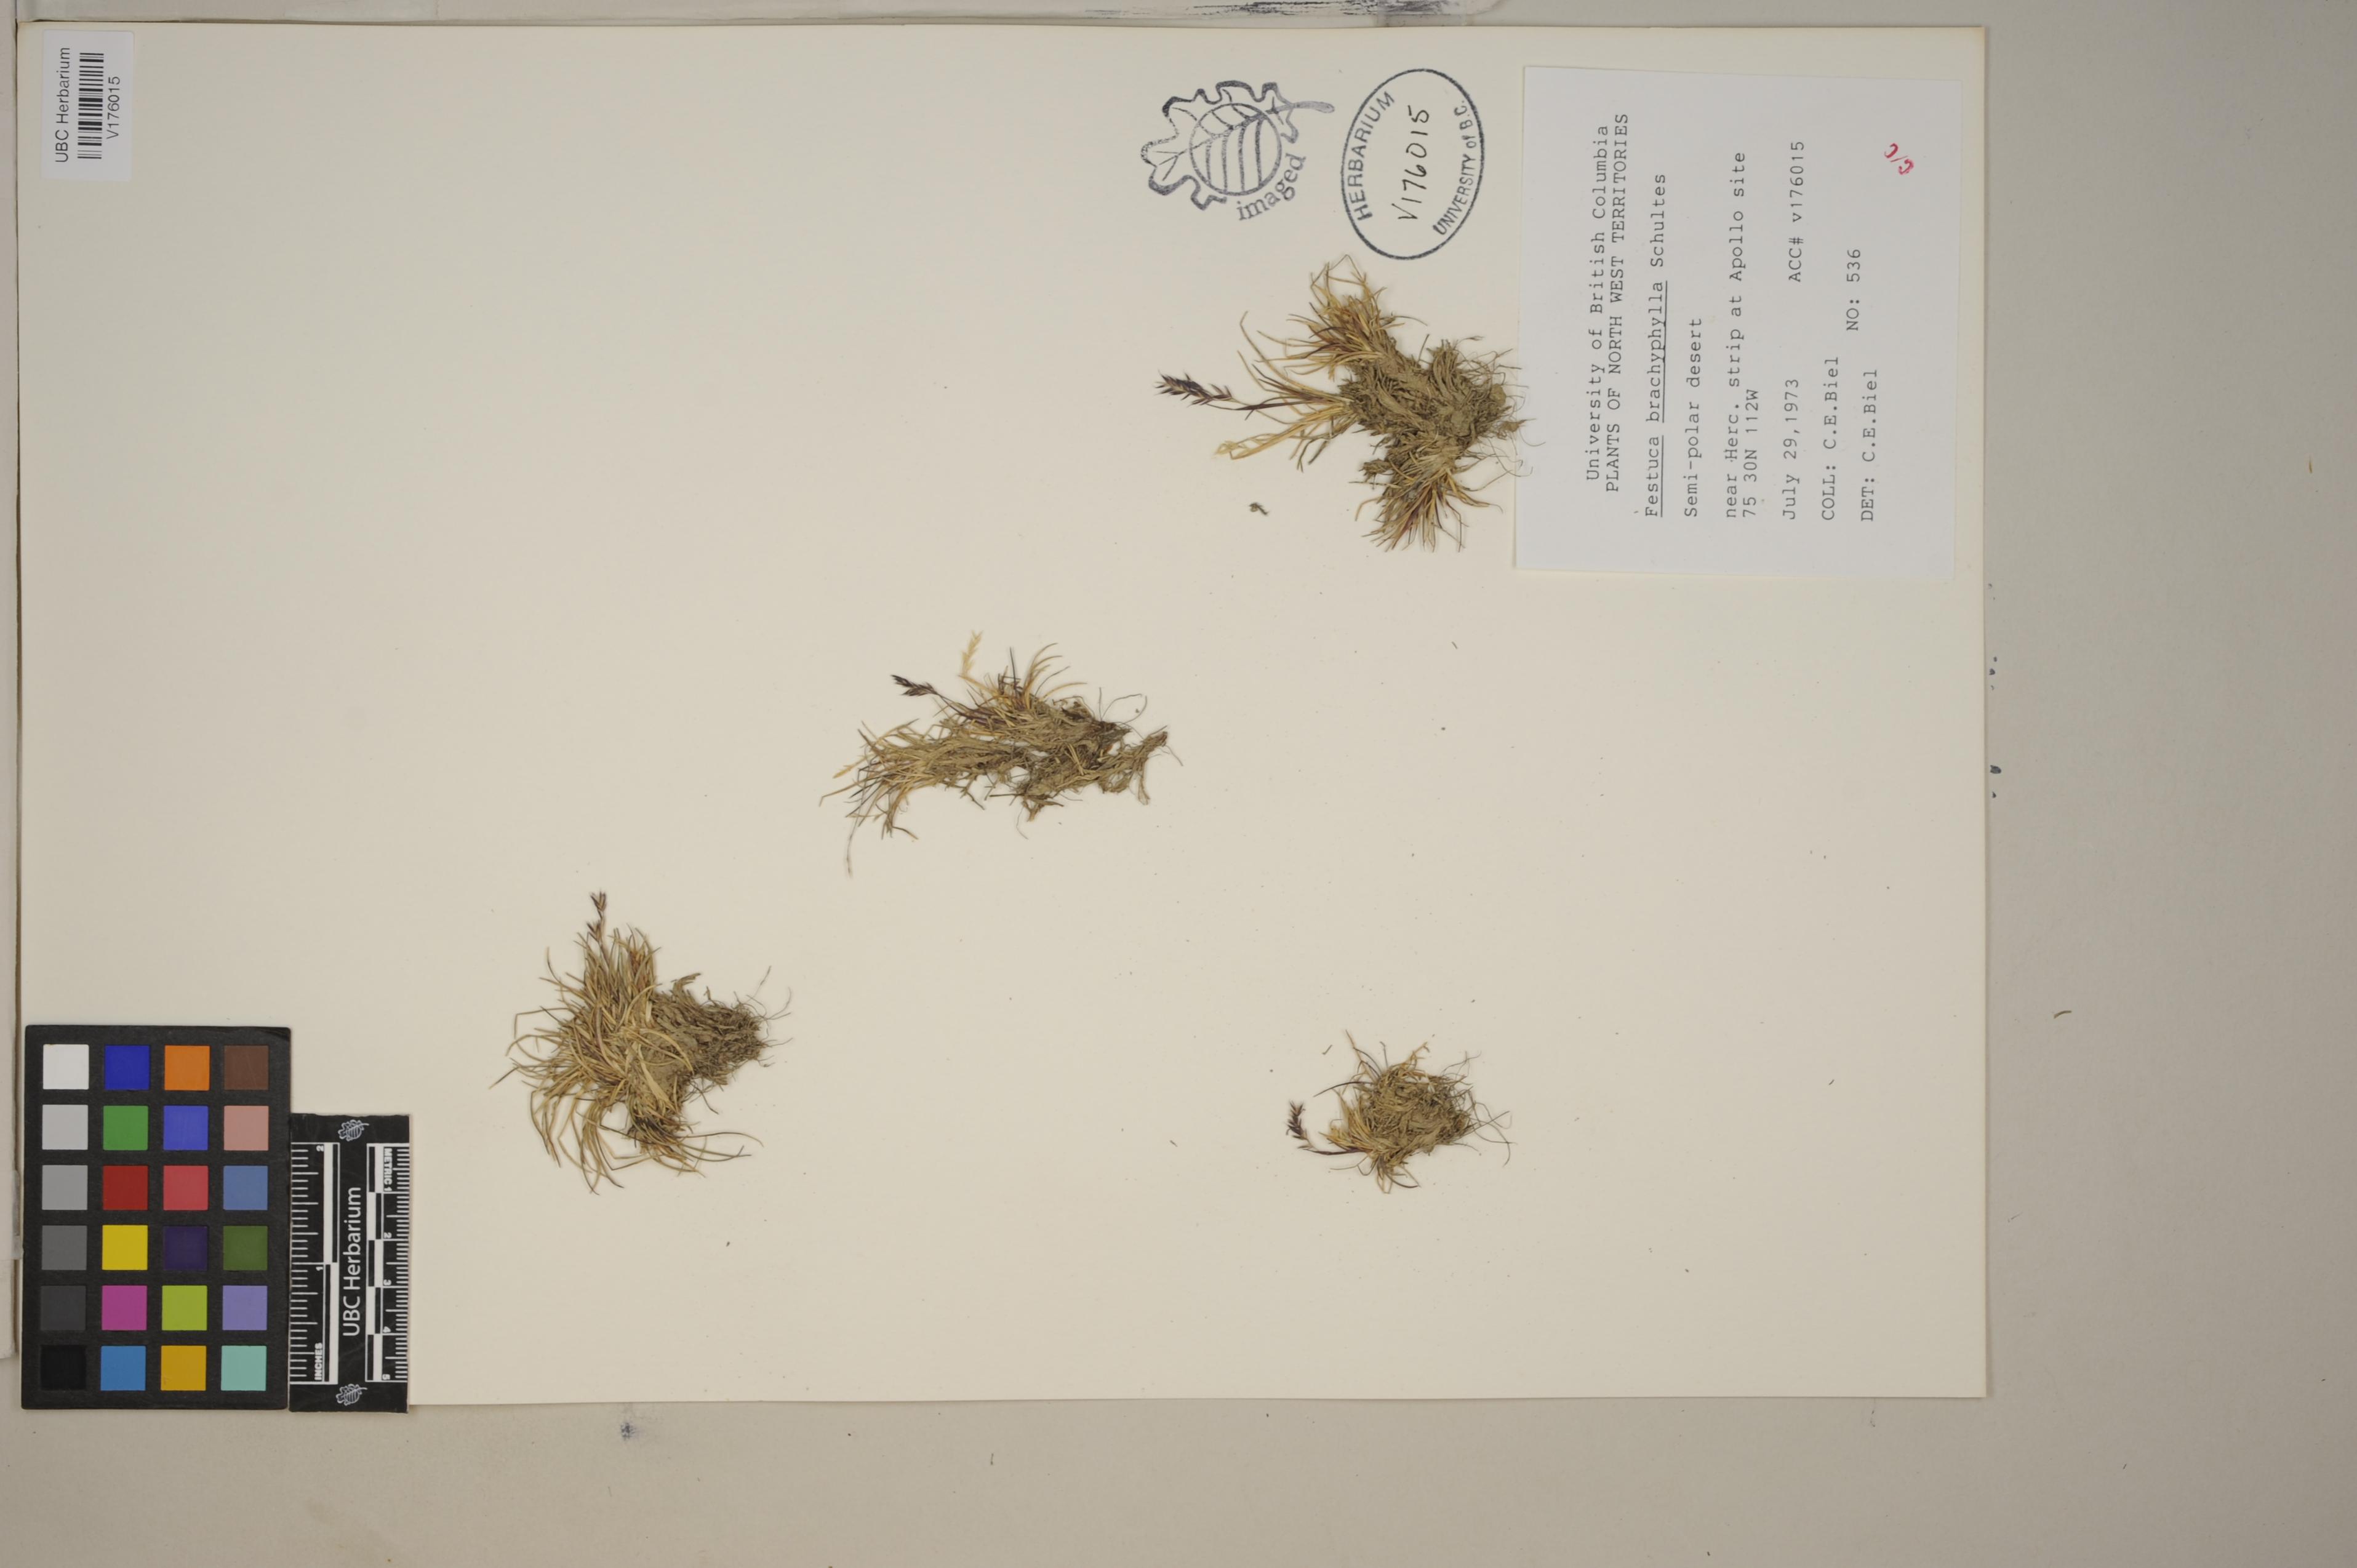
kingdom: Plantae
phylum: Tracheophyta
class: Liliopsida
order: Poales
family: Poaceae
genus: Festuca
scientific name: Festuca edlundiae
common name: Edlund's fescue
